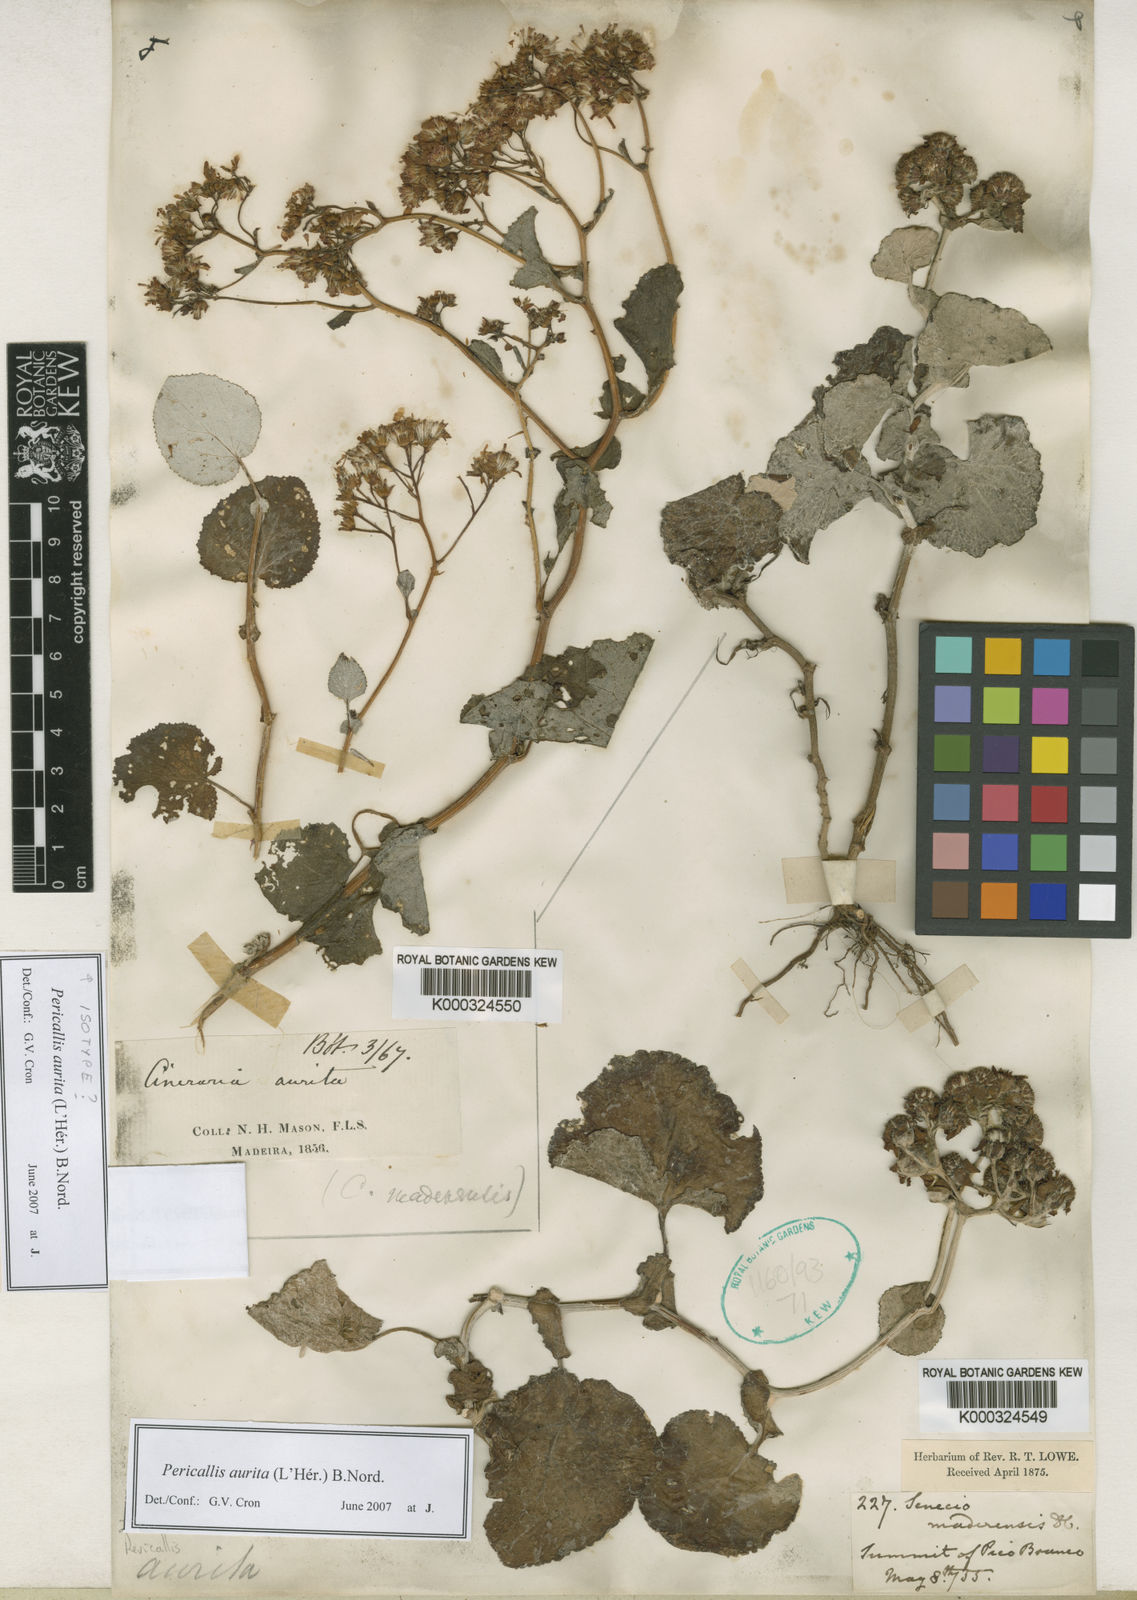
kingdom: Plantae
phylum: Tracheophyta
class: Magnoliopsida
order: Asterales
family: Asteraceae
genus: Pericallis
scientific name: Pericallis
